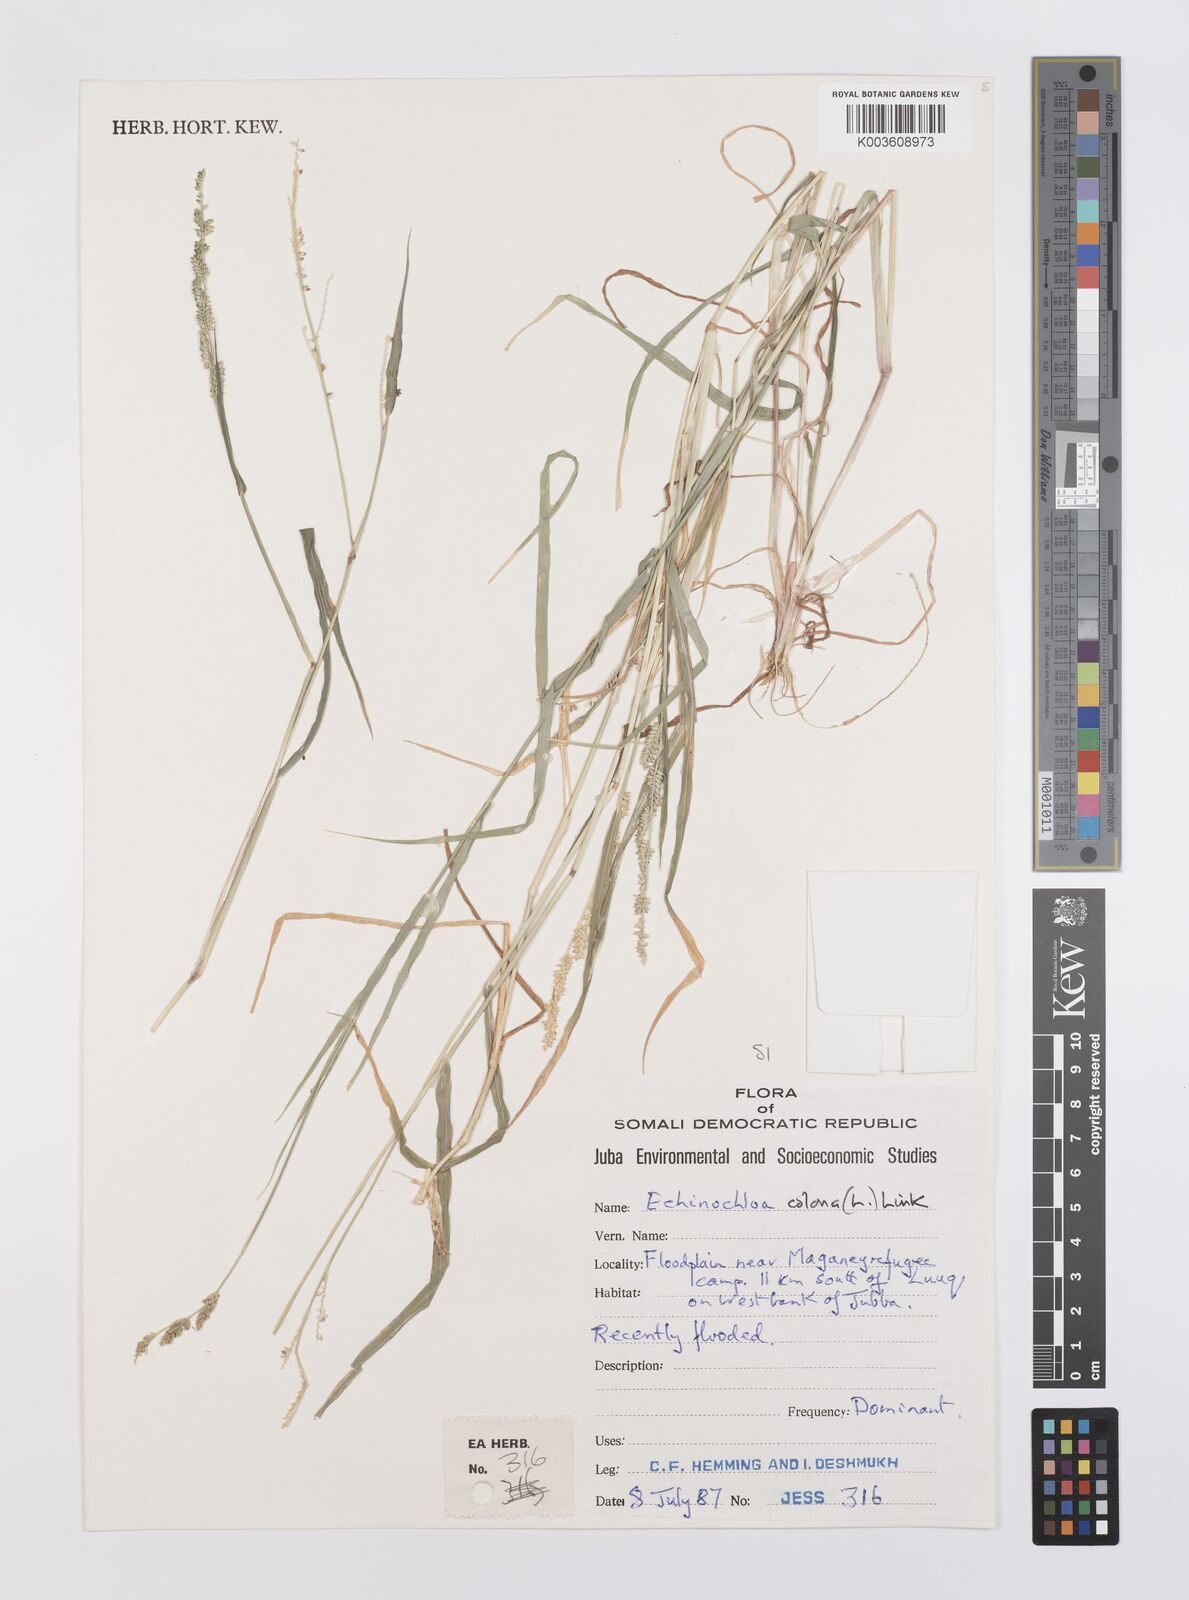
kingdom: Plantae
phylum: Tracheophyta
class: Liliopsida
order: Poales
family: Poaceae
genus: Echinochloa
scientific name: Echinochloa colonum
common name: Jungle rice
